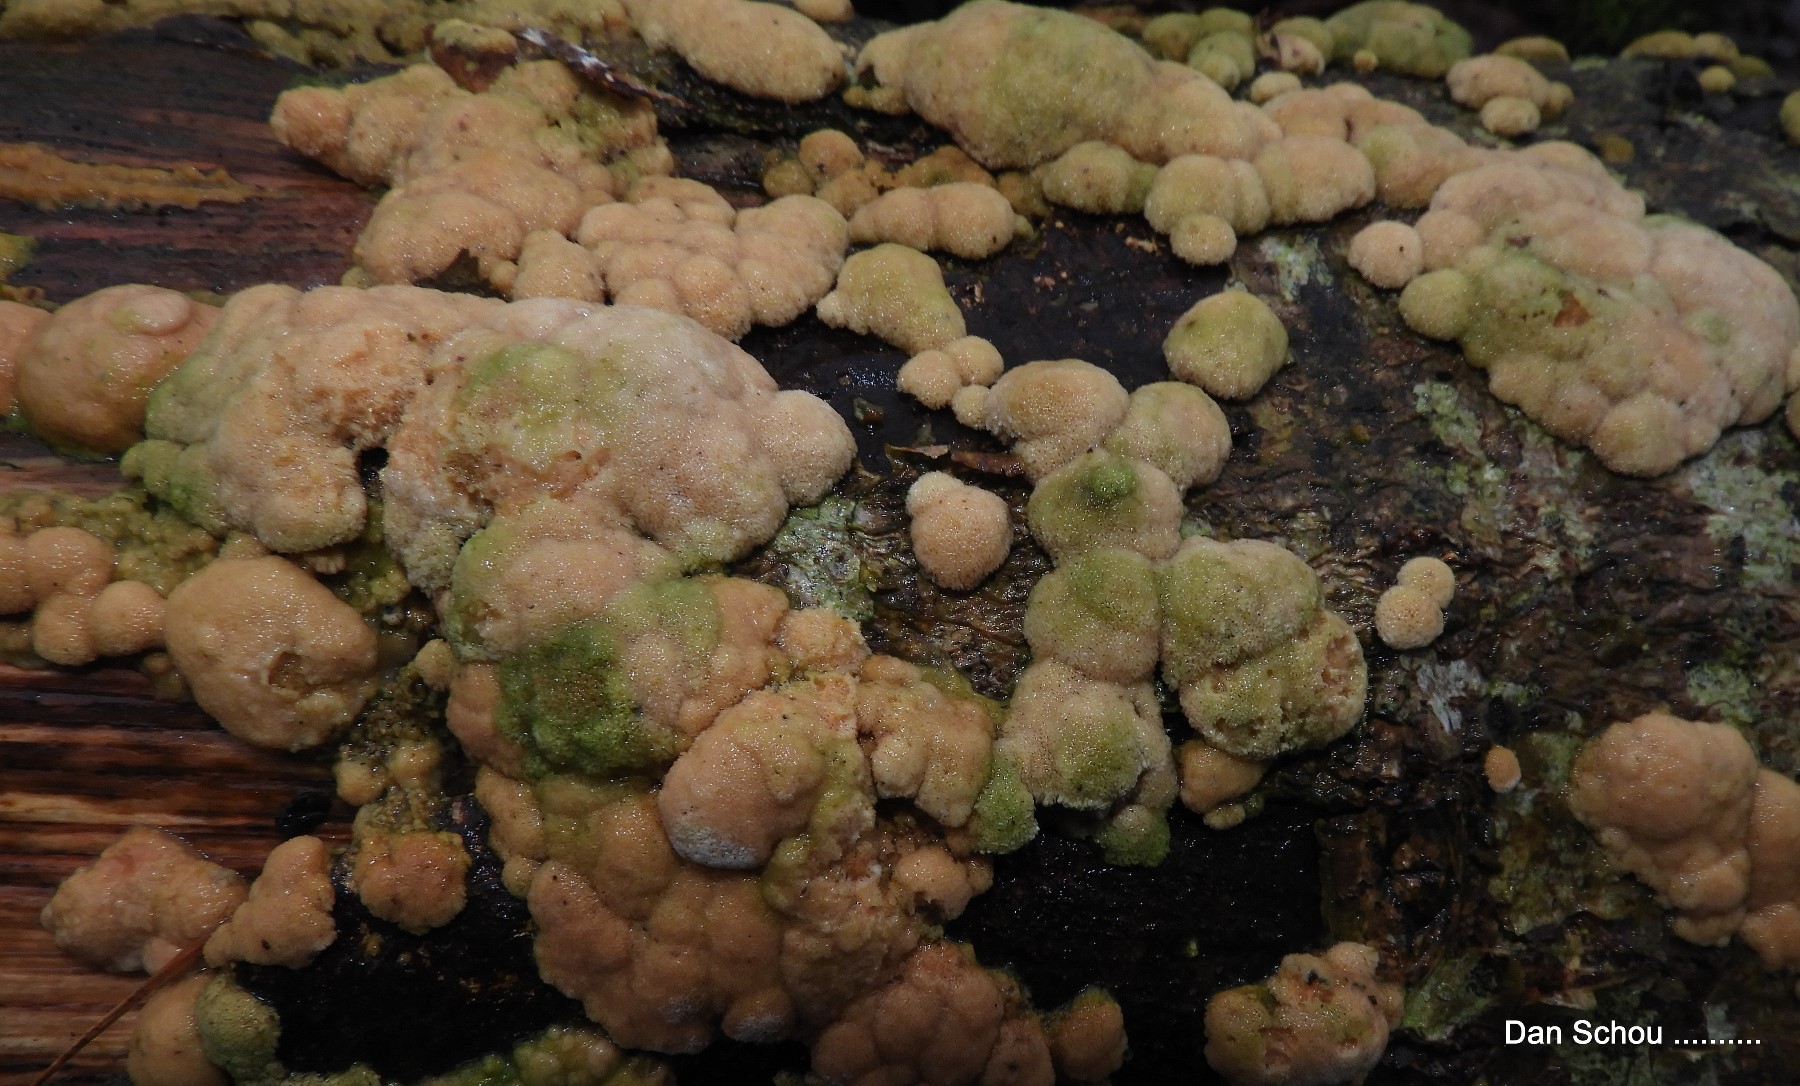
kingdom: Fungi
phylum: Basidiomycota
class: Agaricomycetes
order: Polyporales
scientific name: Polyporales
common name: poresvampordenen
